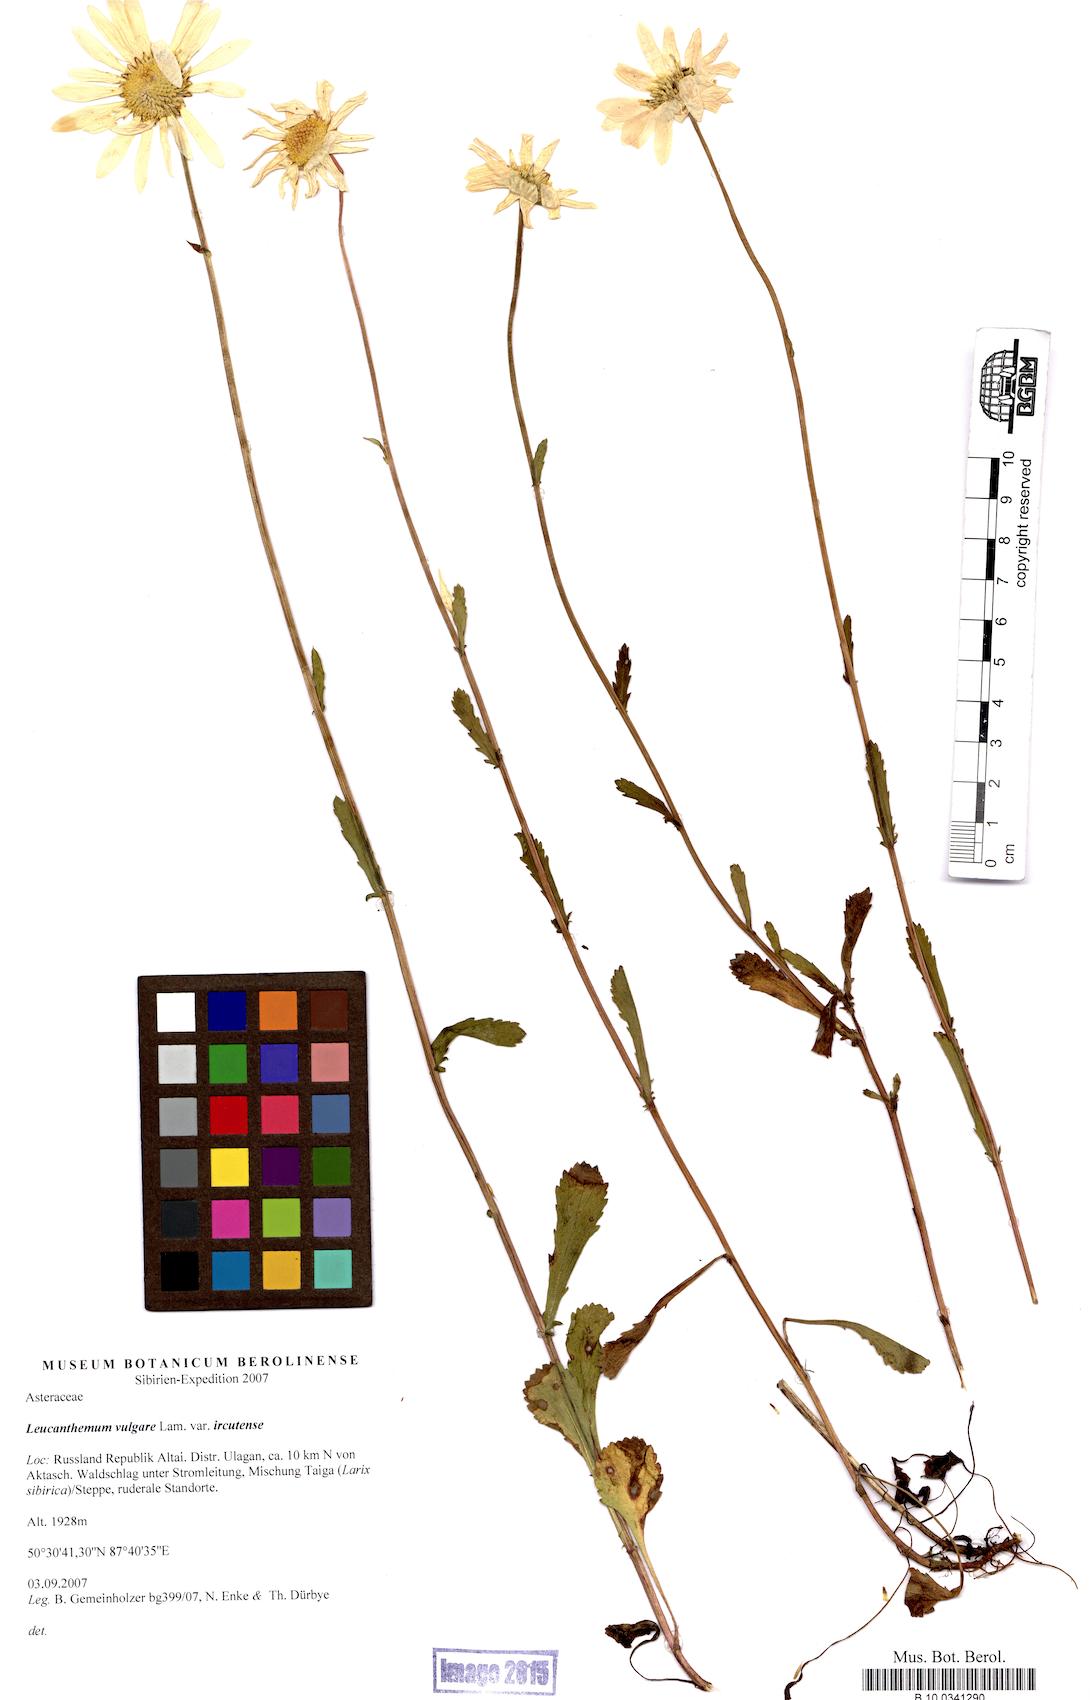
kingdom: Plantae
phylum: Tracheophyta
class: Magnoliopsida
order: Asterales
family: Asteraceae
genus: Leucanthemum
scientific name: Leucanthemum ircutianum
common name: Daisy
